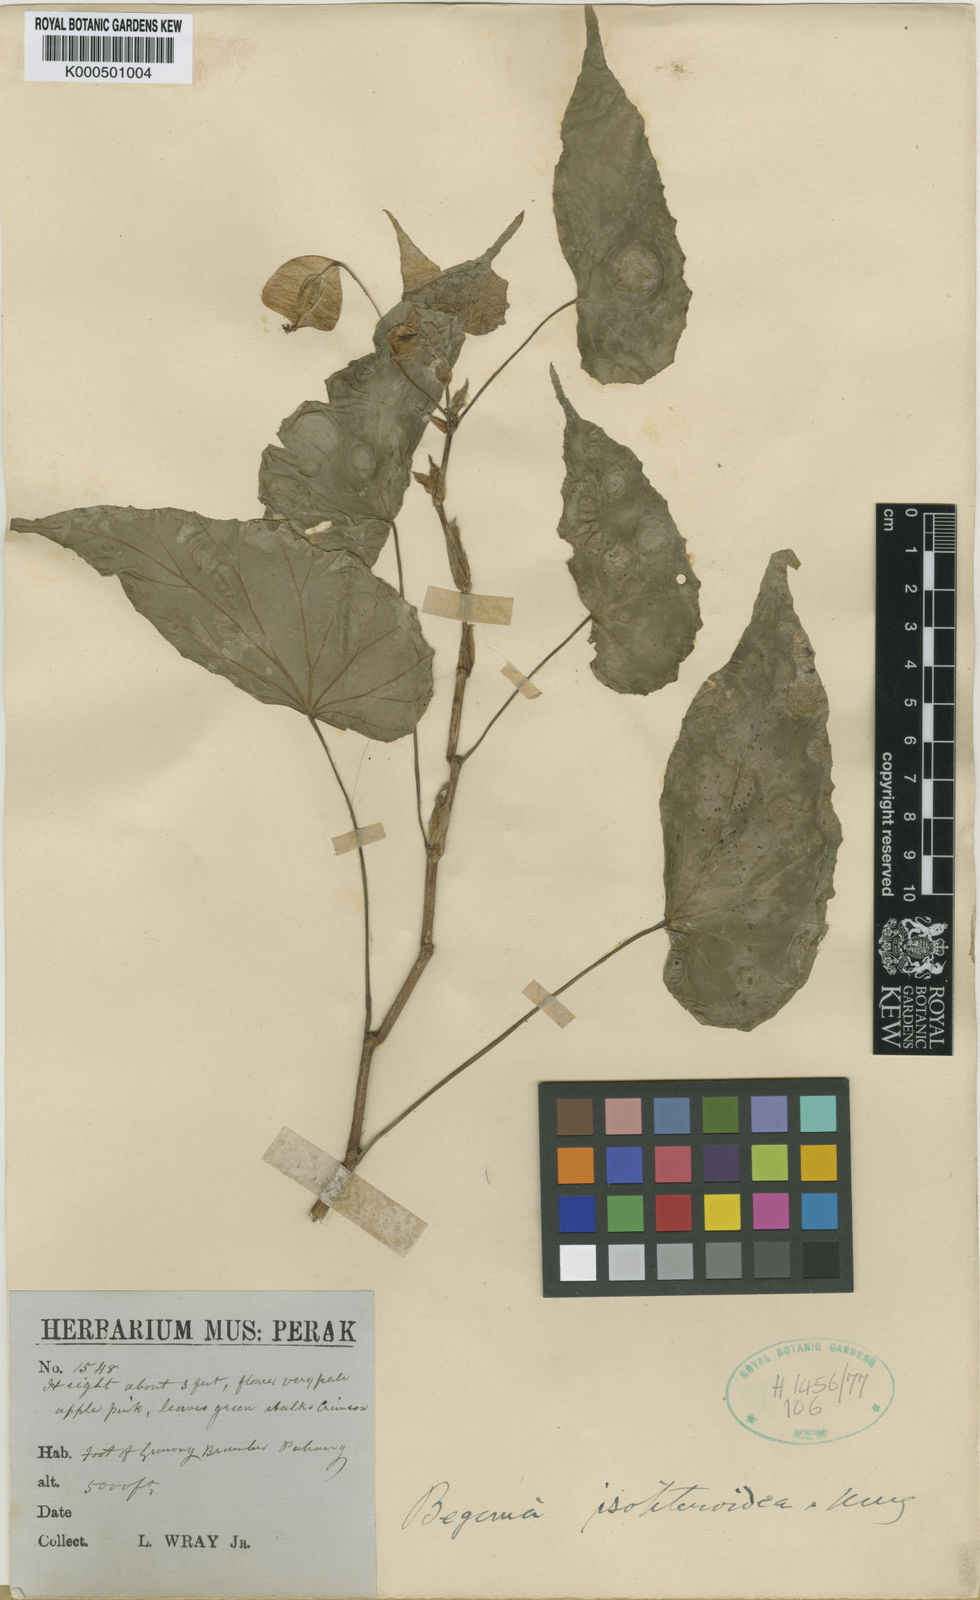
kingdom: Plantae
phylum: Tracheophyta
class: Magnoliopsida
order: Cucurbitales
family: Begoniaceae
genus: Begonia
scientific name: Begonia isopteroidea
